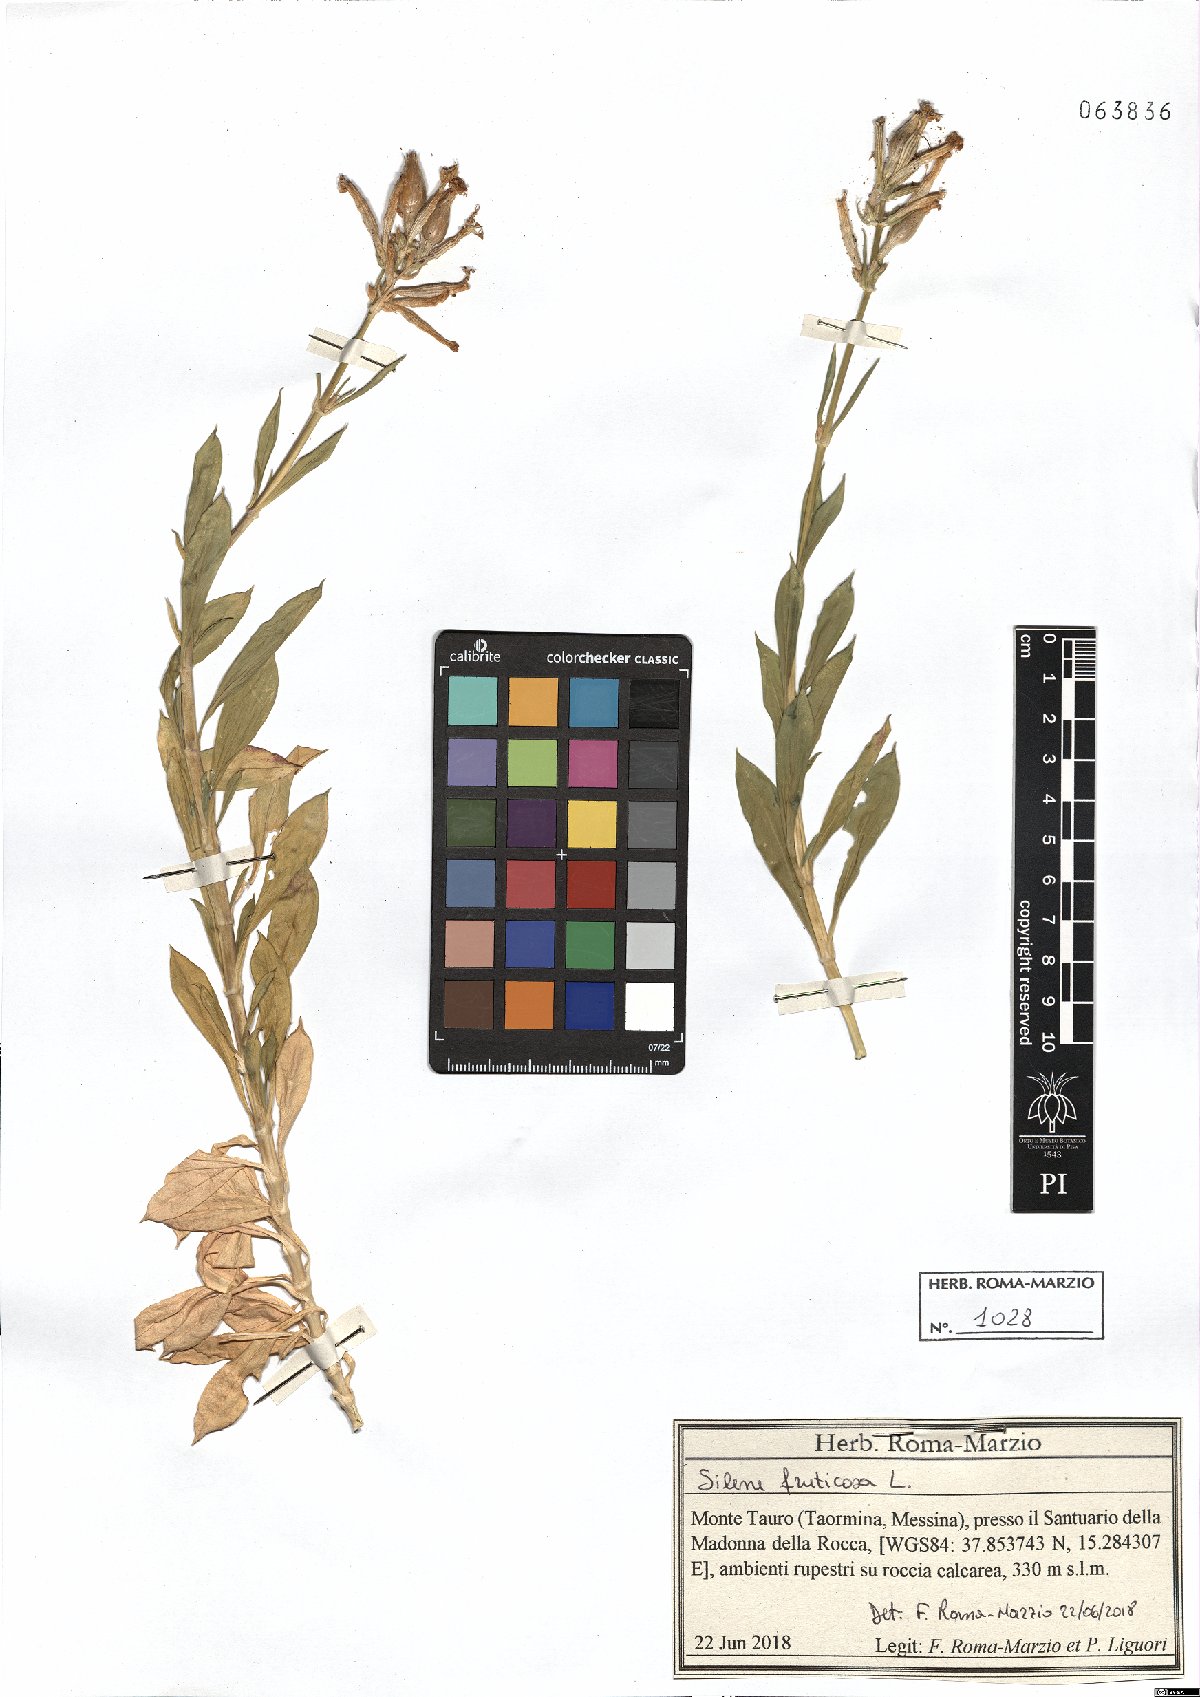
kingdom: Plantae
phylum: Tracheophyta
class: Magnoliopsida
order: Caryophyllales
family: Caryophyllaceae
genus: Silene
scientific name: Silene fruticosa
